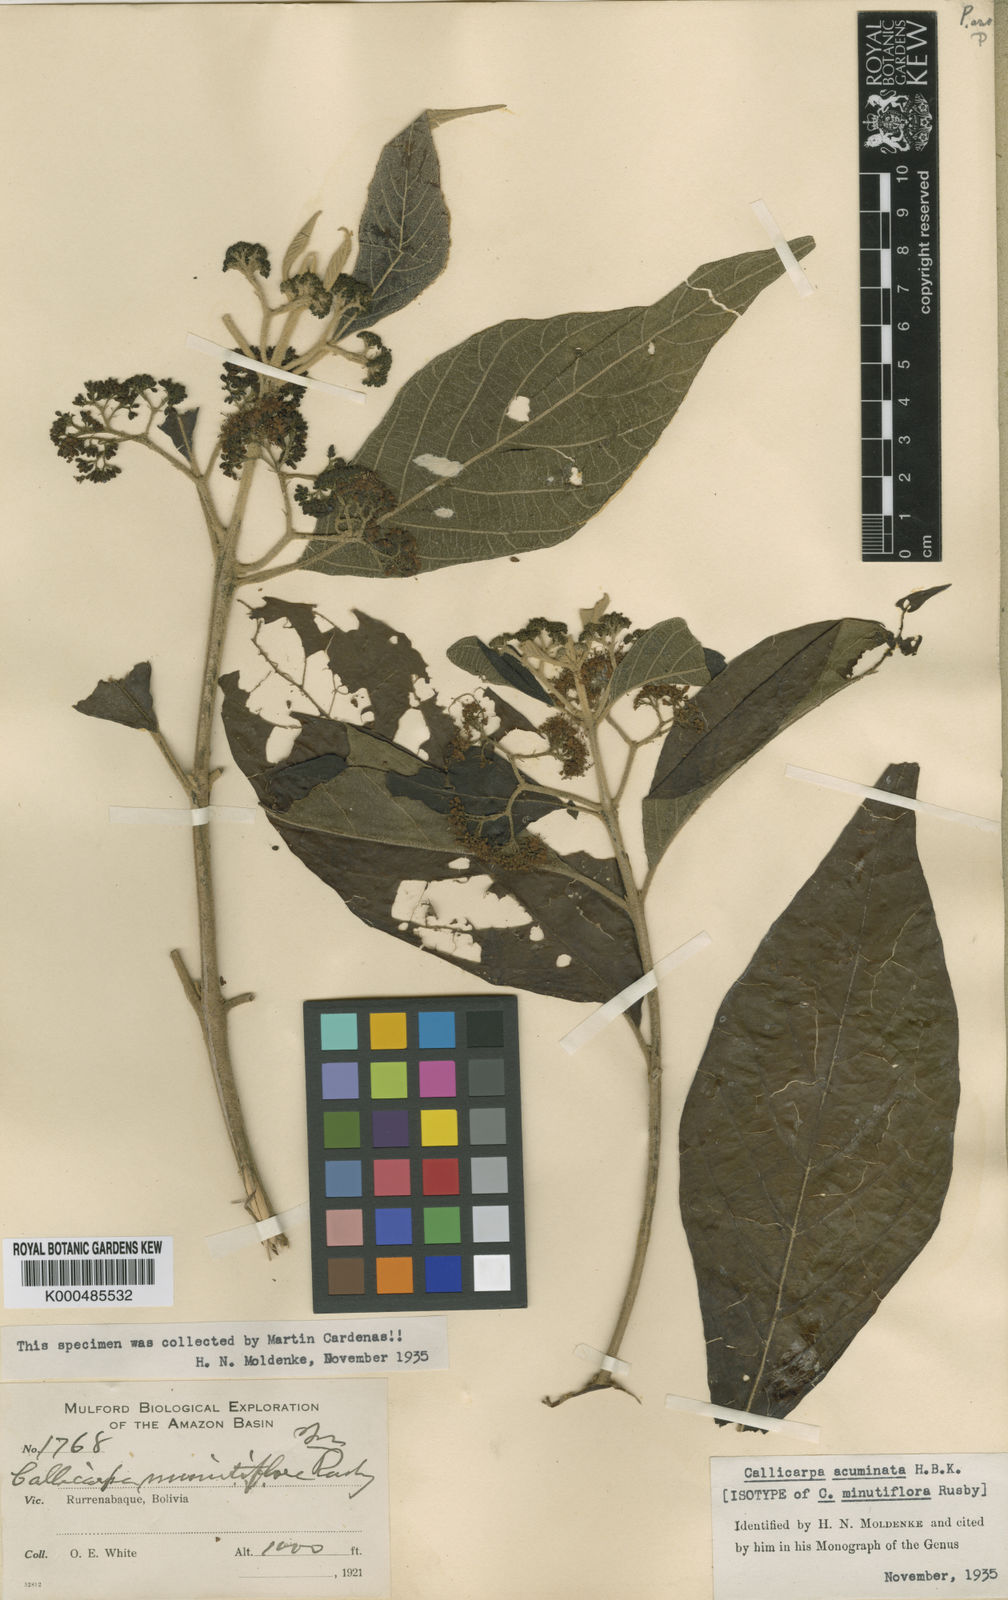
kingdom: Plantae
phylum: Tracheophyta
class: Magnoliopsida
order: Lamiales
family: Lamiaceae
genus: Callicarpa
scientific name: Callicarpa acuminata
